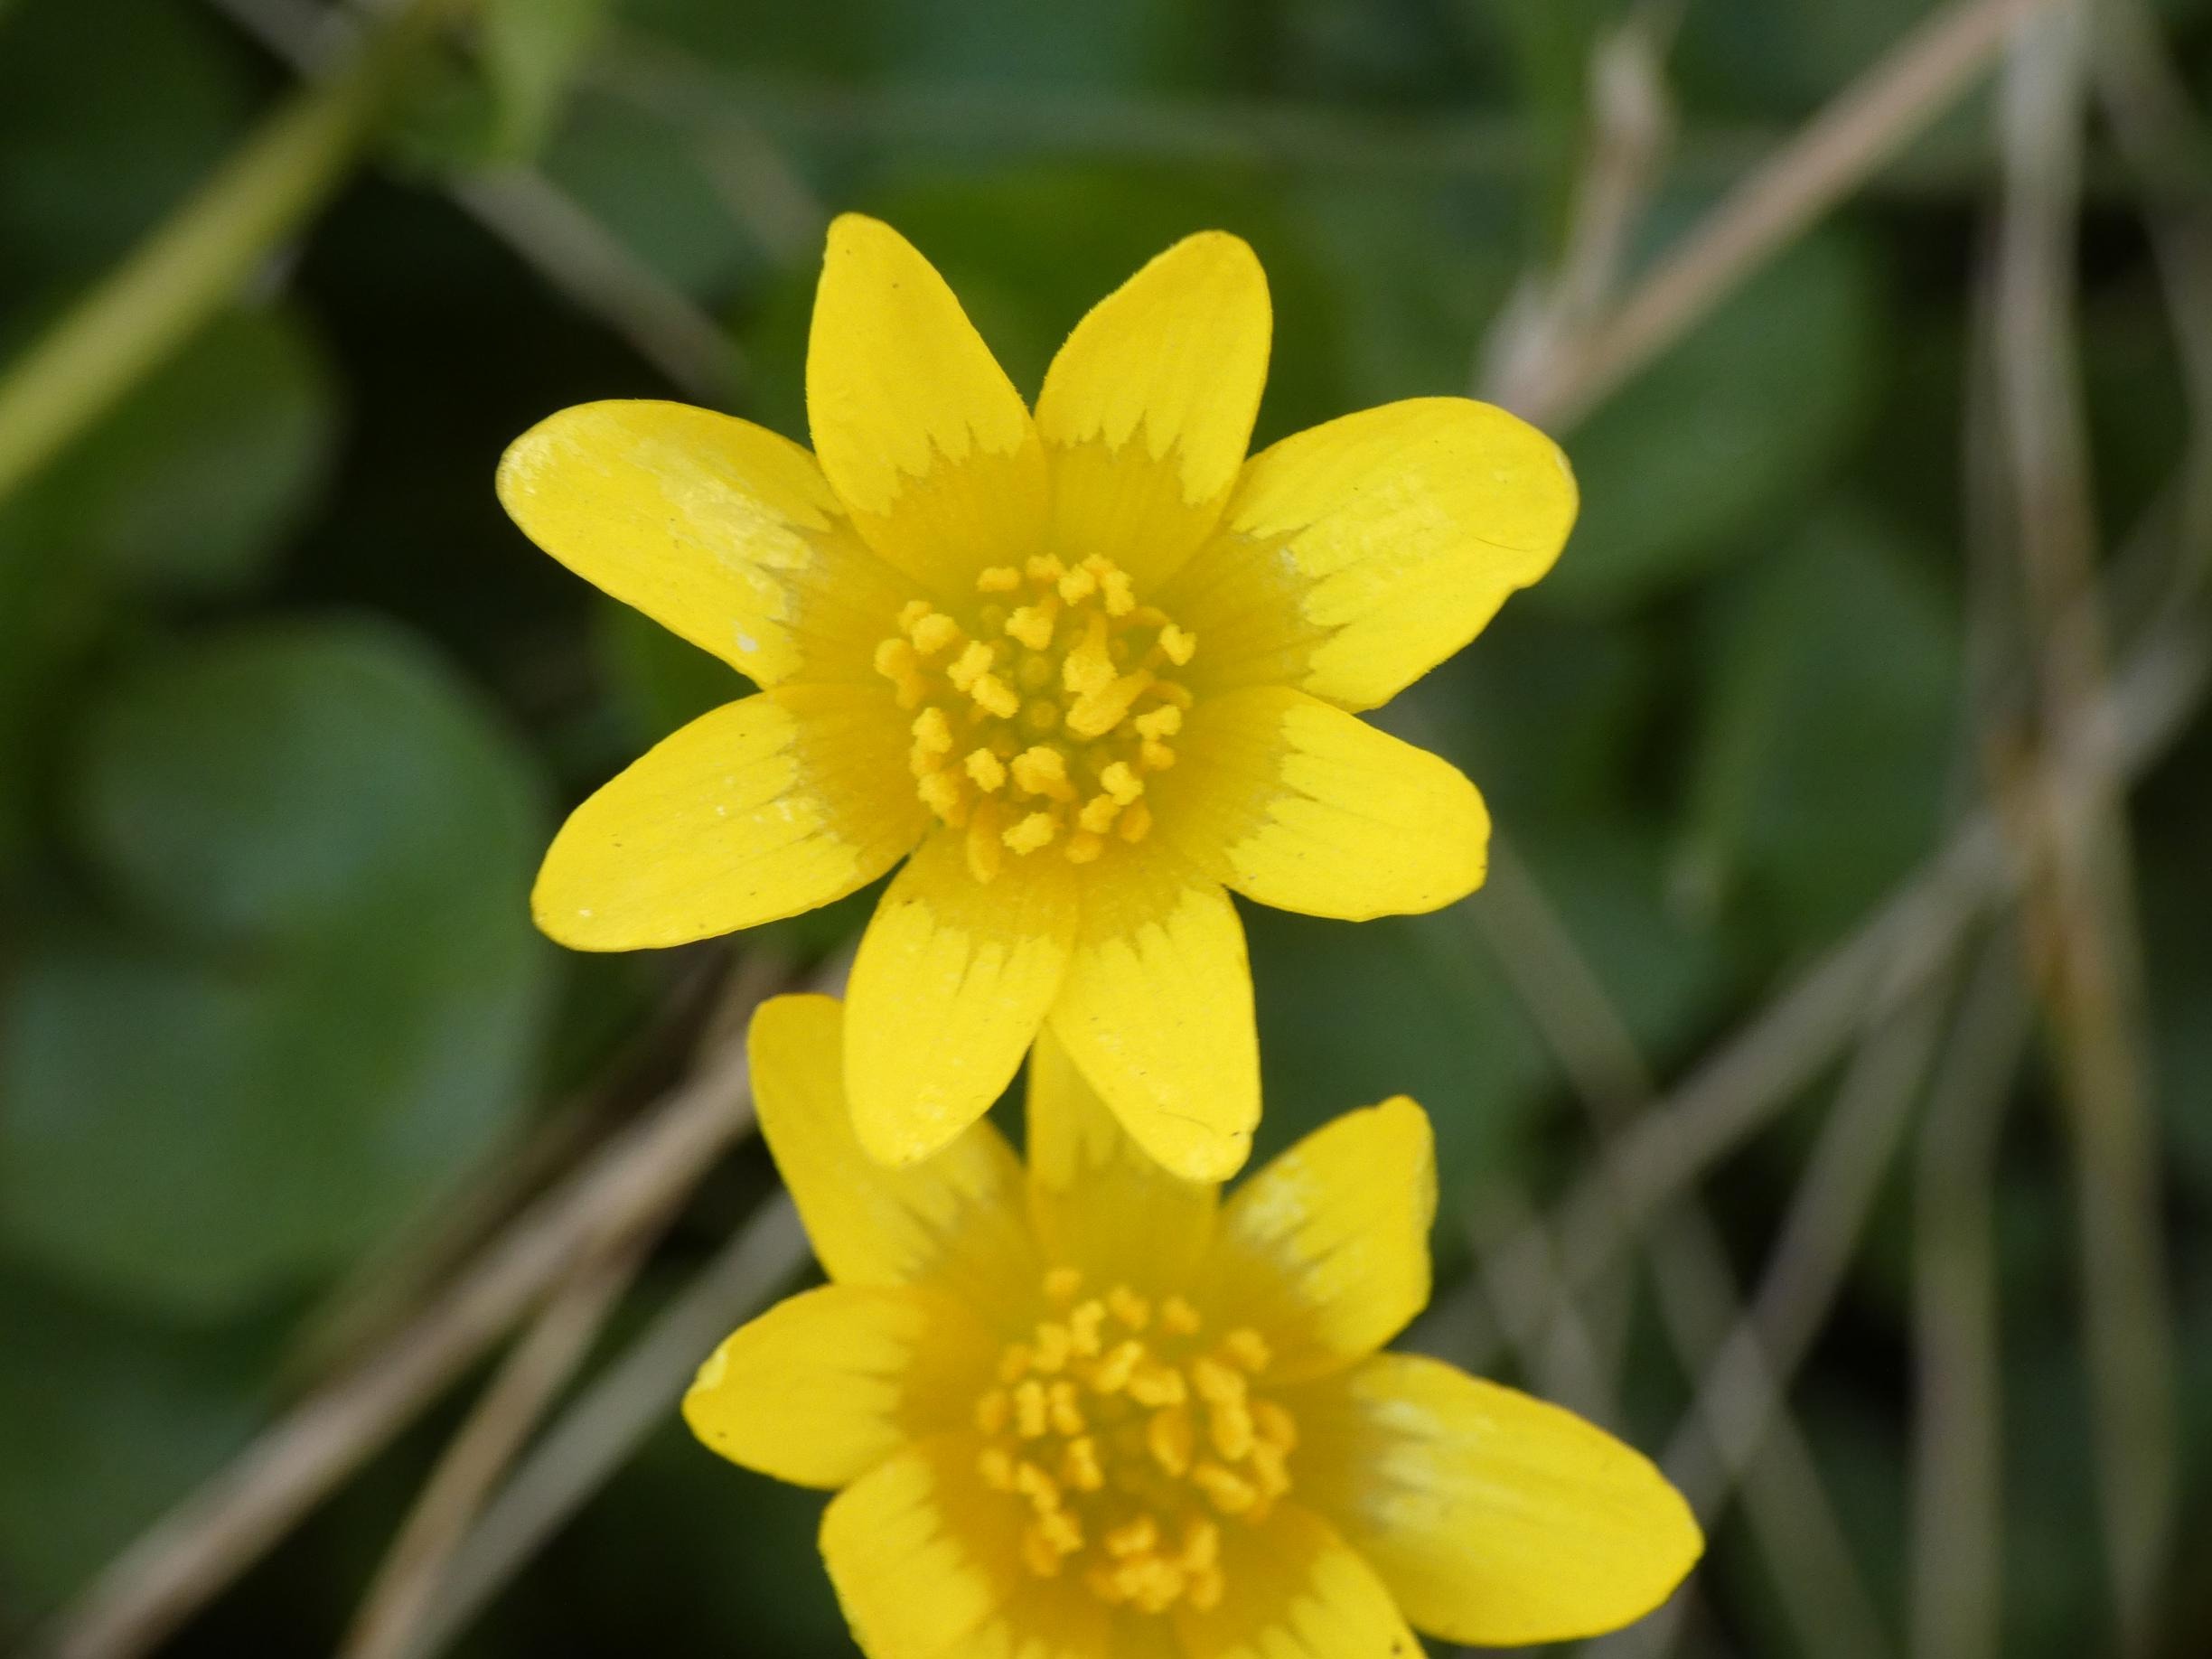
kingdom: Plantae
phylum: Tracheophyta
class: Magnoliopsida
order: Ranunculales
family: Ranunculaceae
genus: Ficaria
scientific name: Ficaria verna
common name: Vorterod
